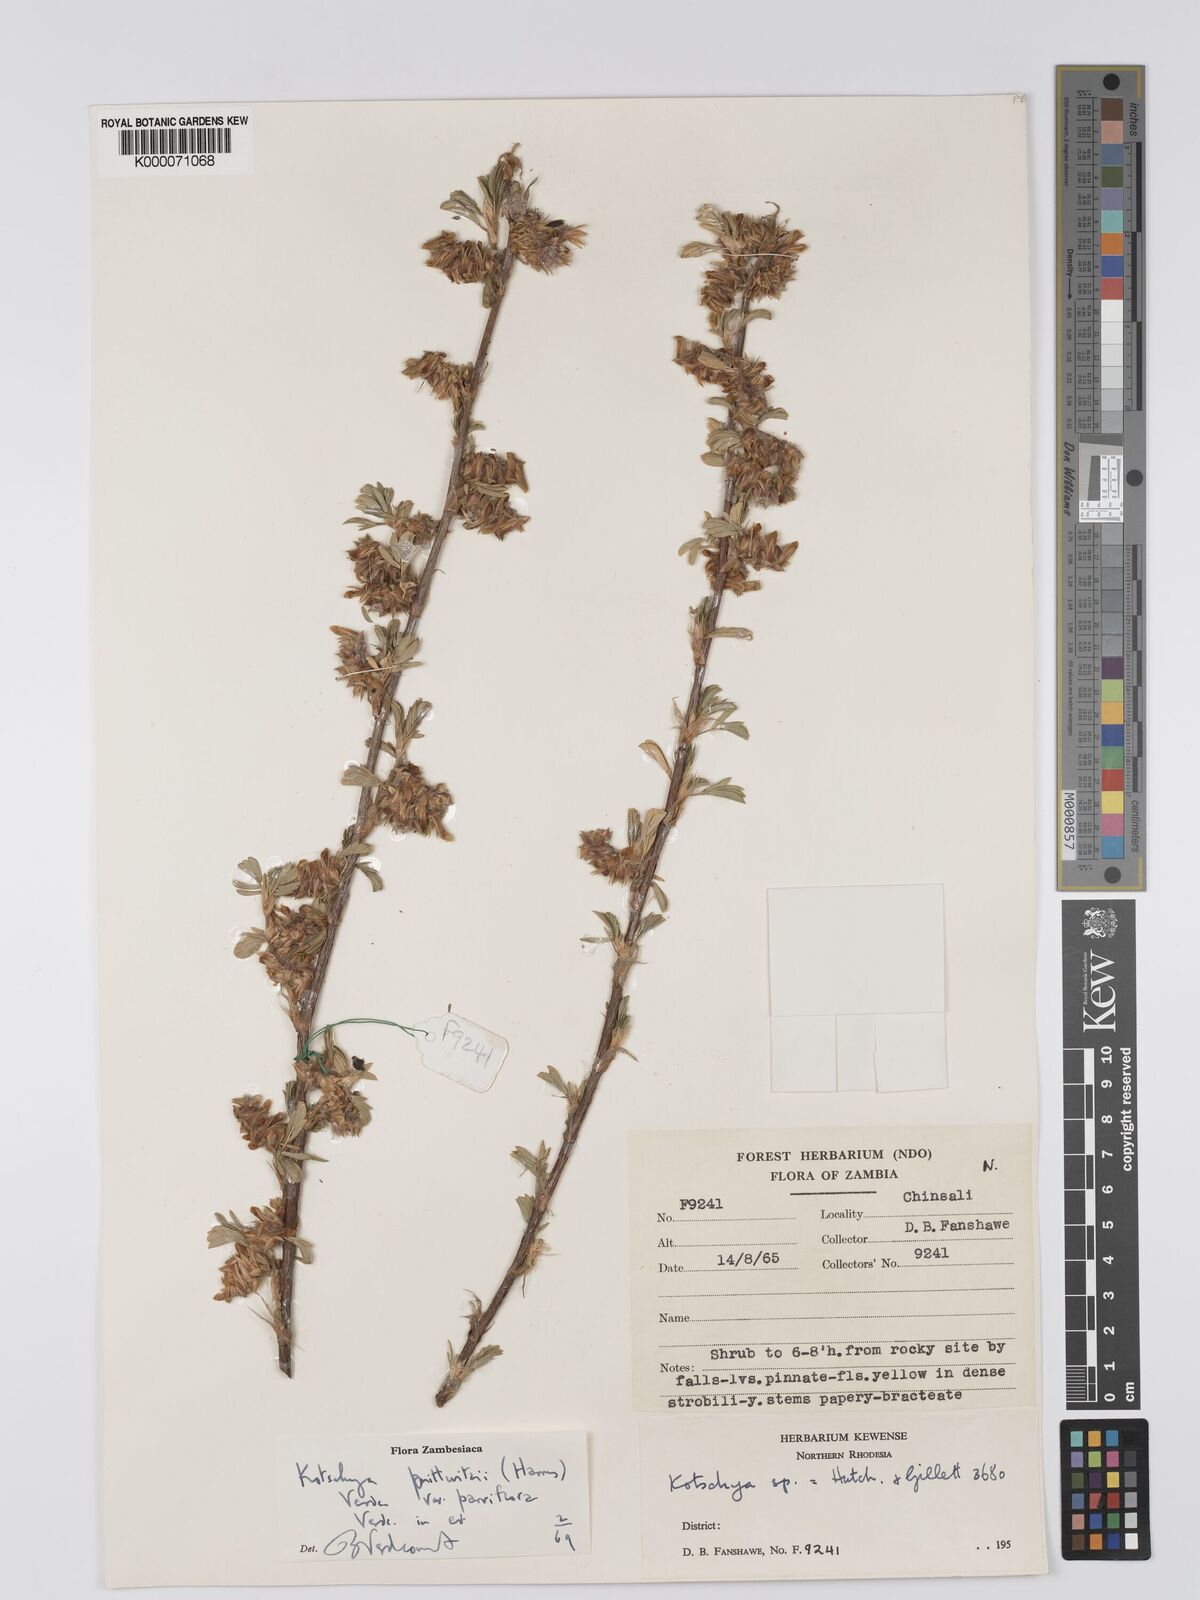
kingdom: Plantae
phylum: Tracheophyta
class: Magnoliopsida
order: Fabales
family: Fabaceae
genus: Kotschya
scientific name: Kotschya prittwitzii
